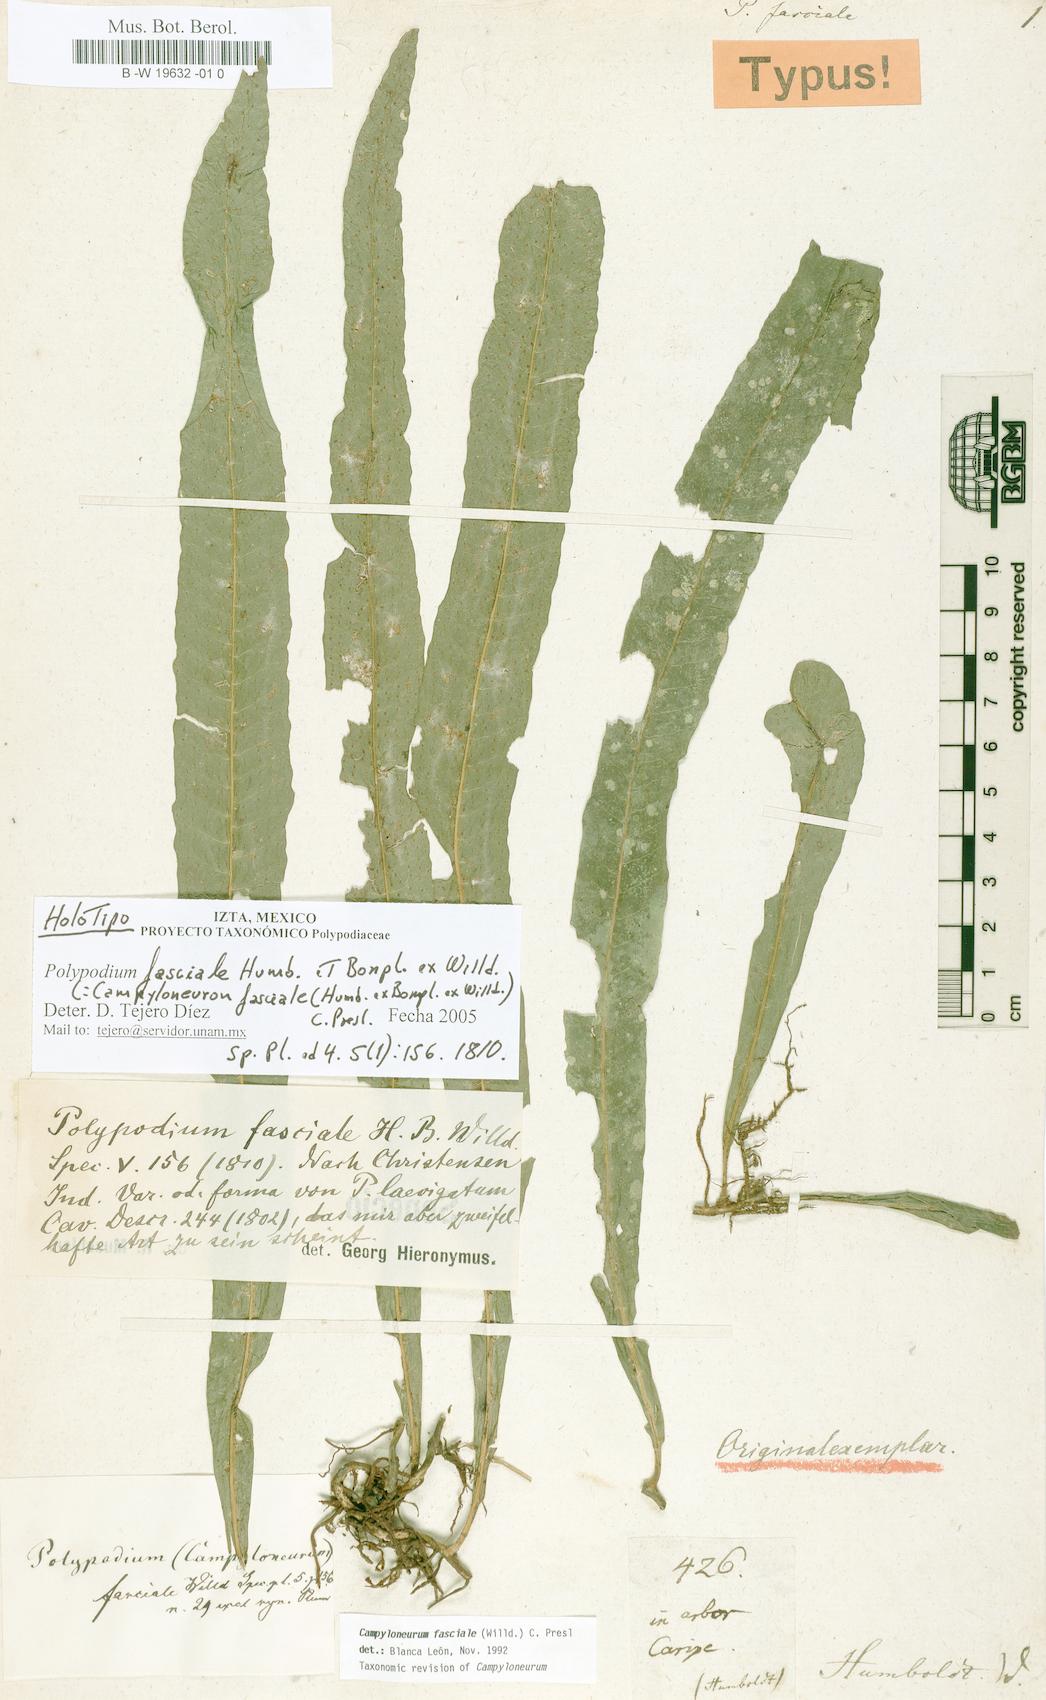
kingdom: Plantae
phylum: Tracheophyta
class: Polypodiopsida
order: Polypodiales
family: Polypodiaceae
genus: Campyloneurum
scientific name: Campyloneurum repens
